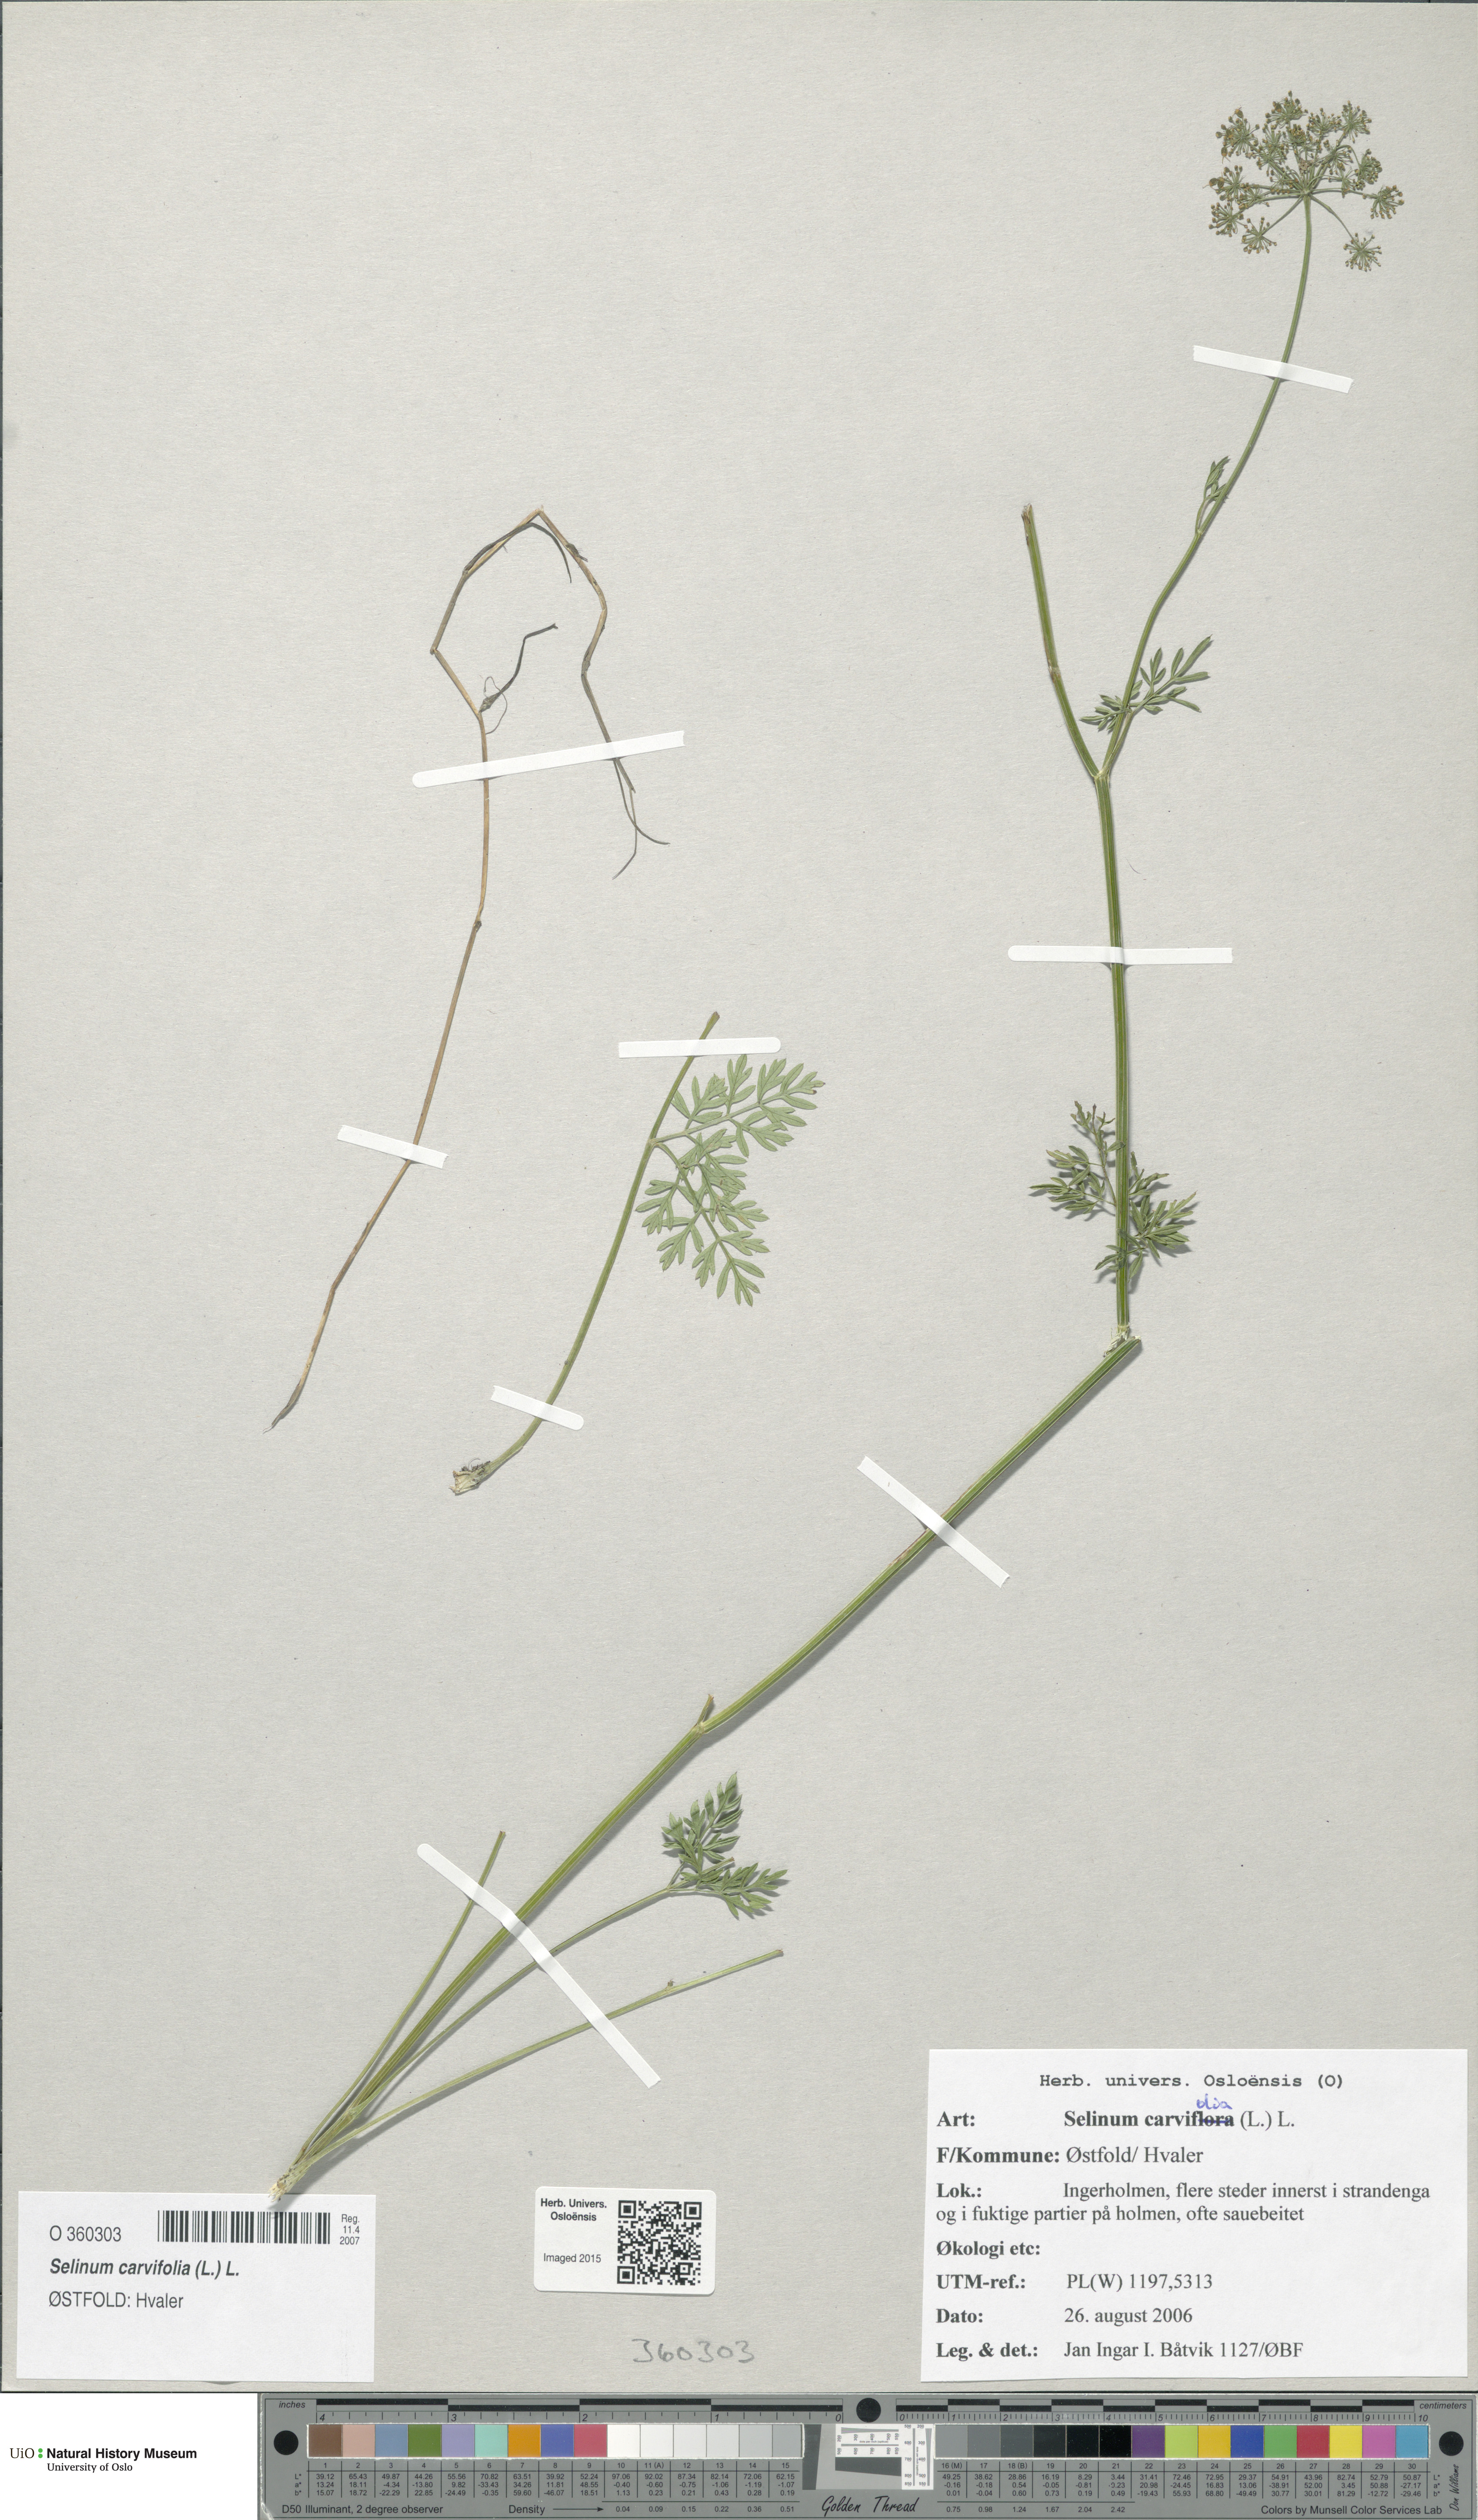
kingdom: Plantae
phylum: Tracheophyta
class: Magnoliopsida
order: Apiales
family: Apiaceae
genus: Selinum
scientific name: Selinum carvifolia
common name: Cambridge milk-parsley
